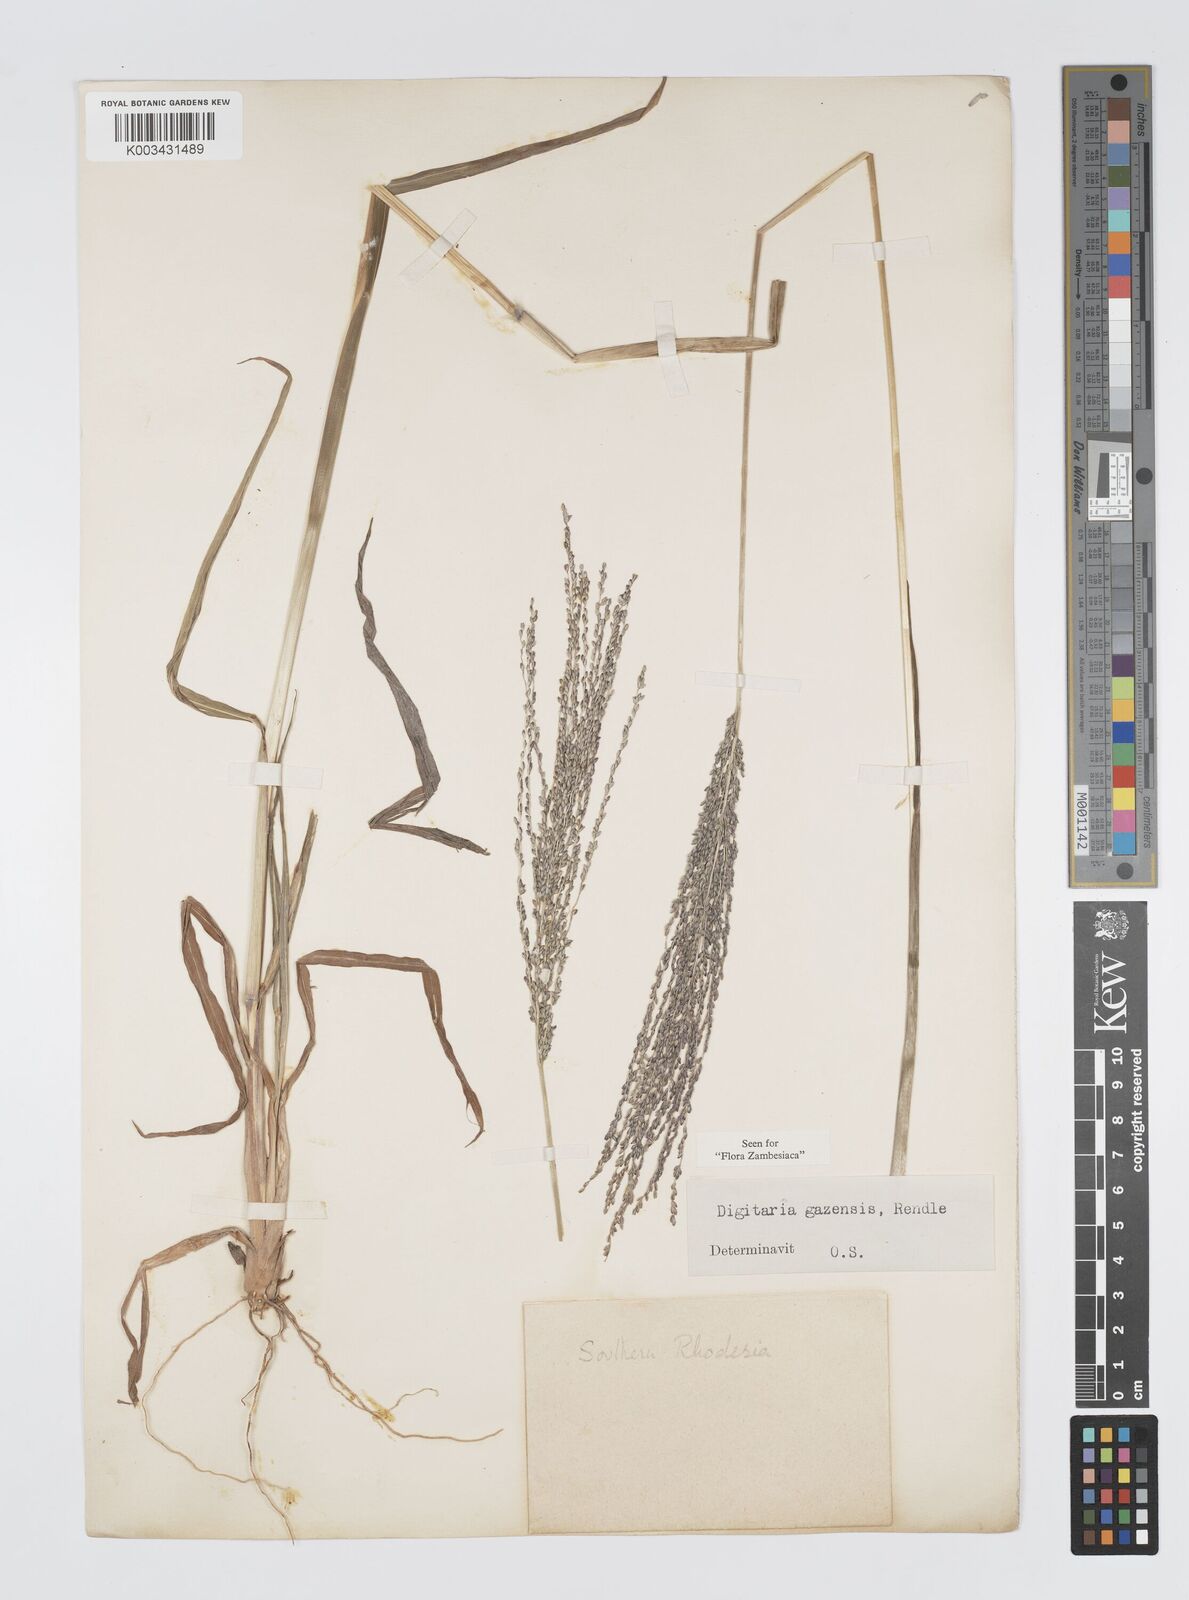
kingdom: Plantae
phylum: Tracheophyta
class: Liliopsida
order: Poales
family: Poaceae
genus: Digitaria
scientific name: Digitaria gazensis
